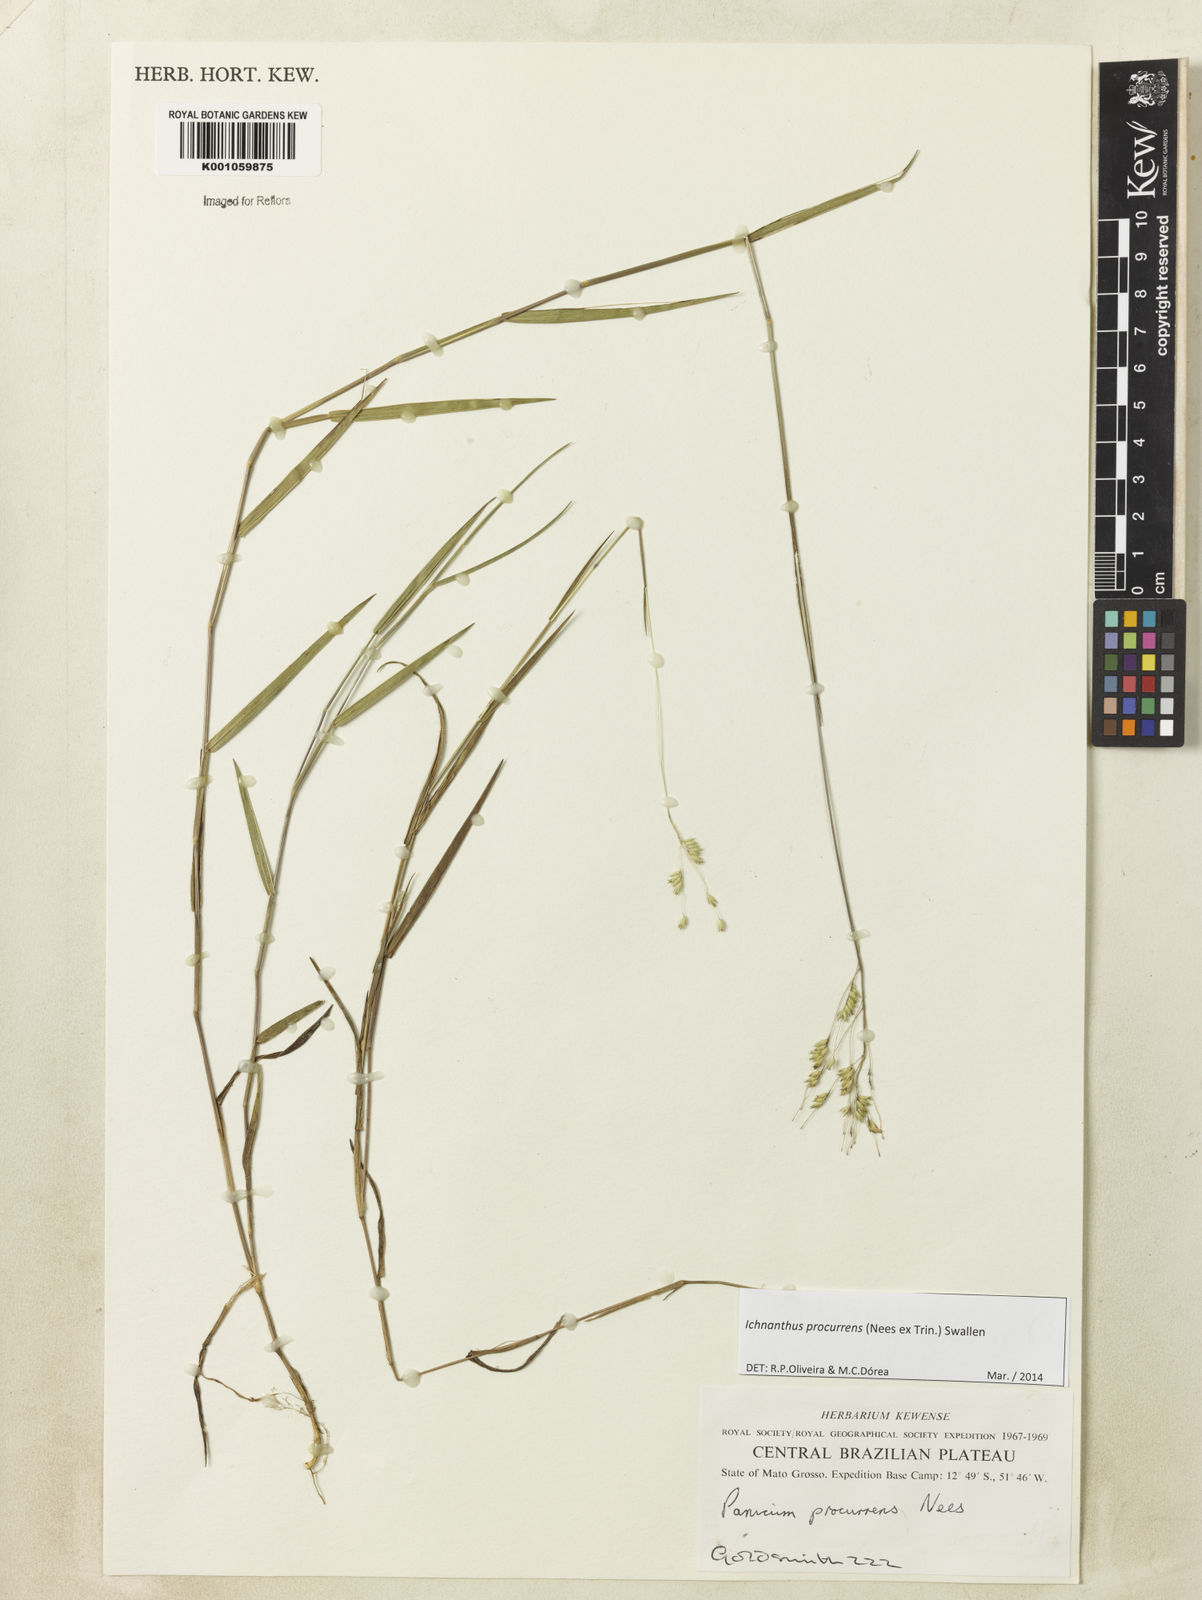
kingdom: Plantae
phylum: Tracheophyta
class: Liliopsida
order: Poales
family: Poaceae
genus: Oedochloa
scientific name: Oedochloa procurrens
